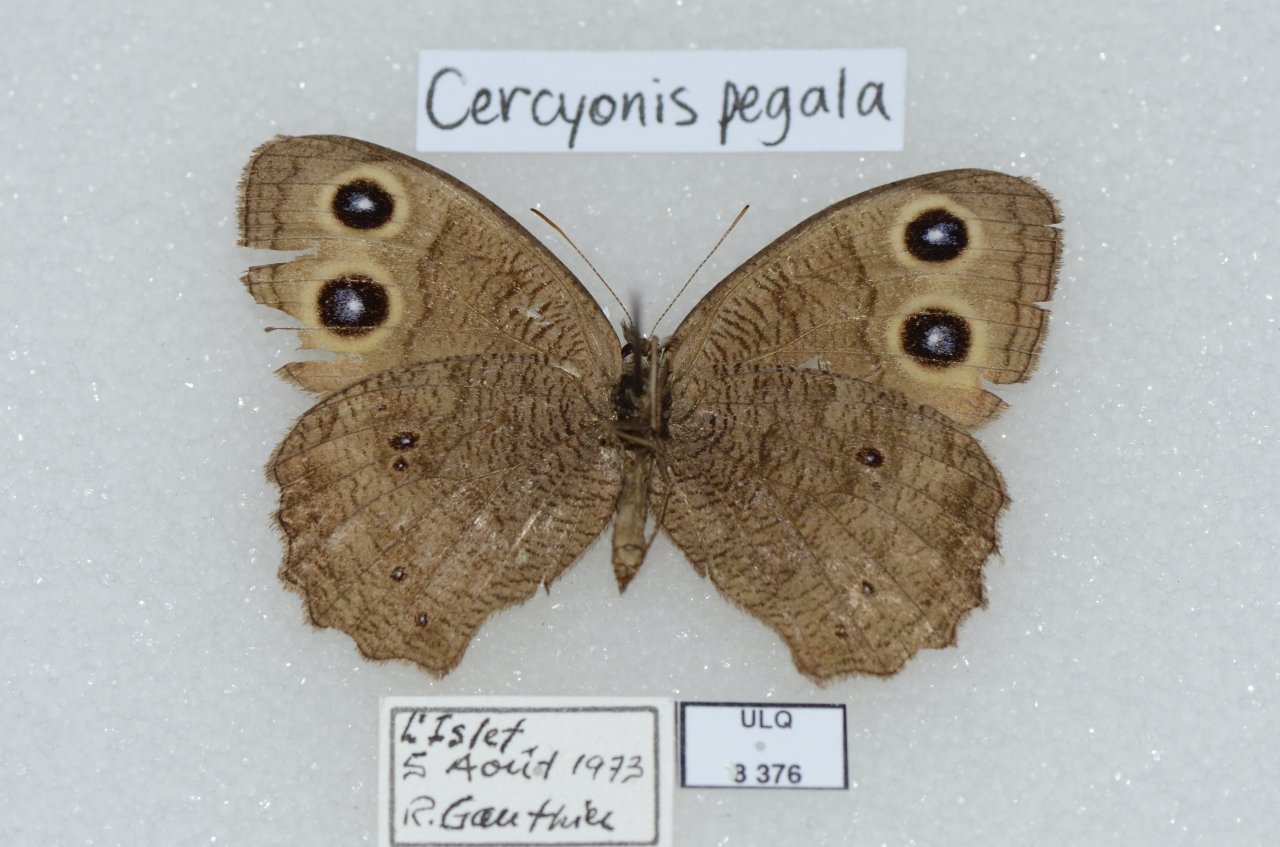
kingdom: Animalia
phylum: Arthropoda
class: Insecta
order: Lepidoptera
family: Nymphalidae
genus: Cercyonis
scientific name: Cercyonis pegala
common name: Common Wood-Nymph
